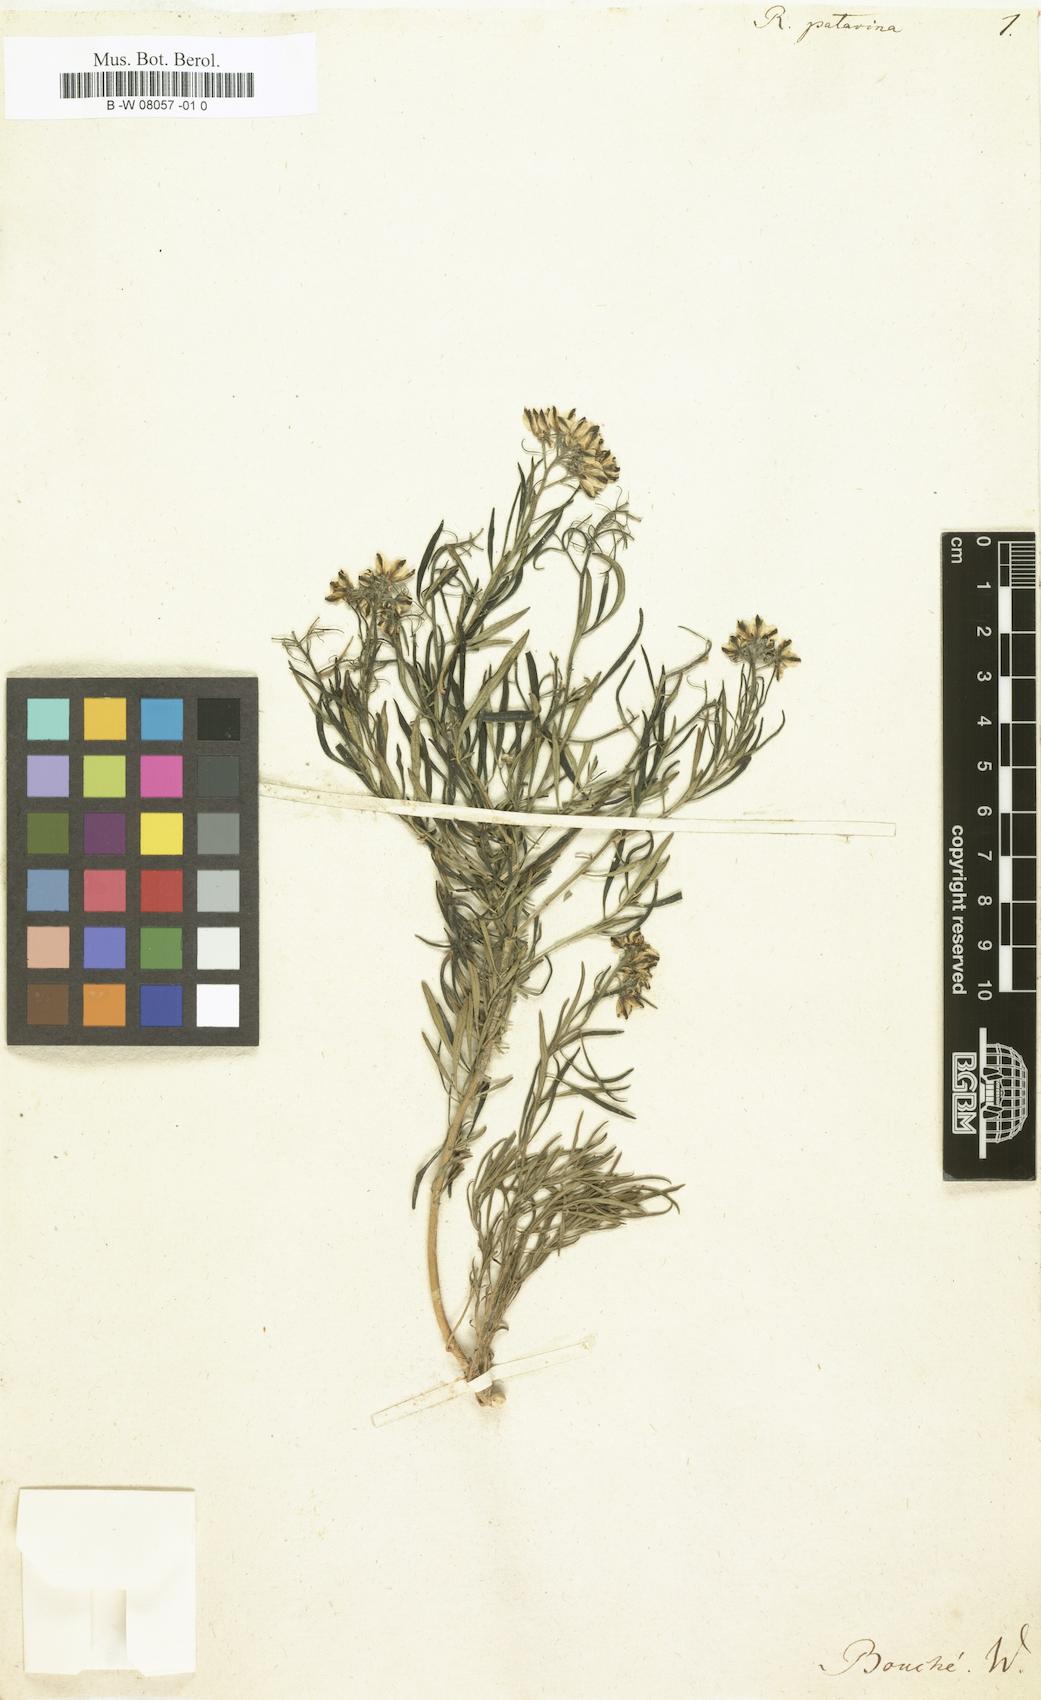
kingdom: Plantae
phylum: Tracheophyta
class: Magnoliopsida
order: Sapindales
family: Rutaceae
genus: Ruta
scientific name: Ruta patavina
